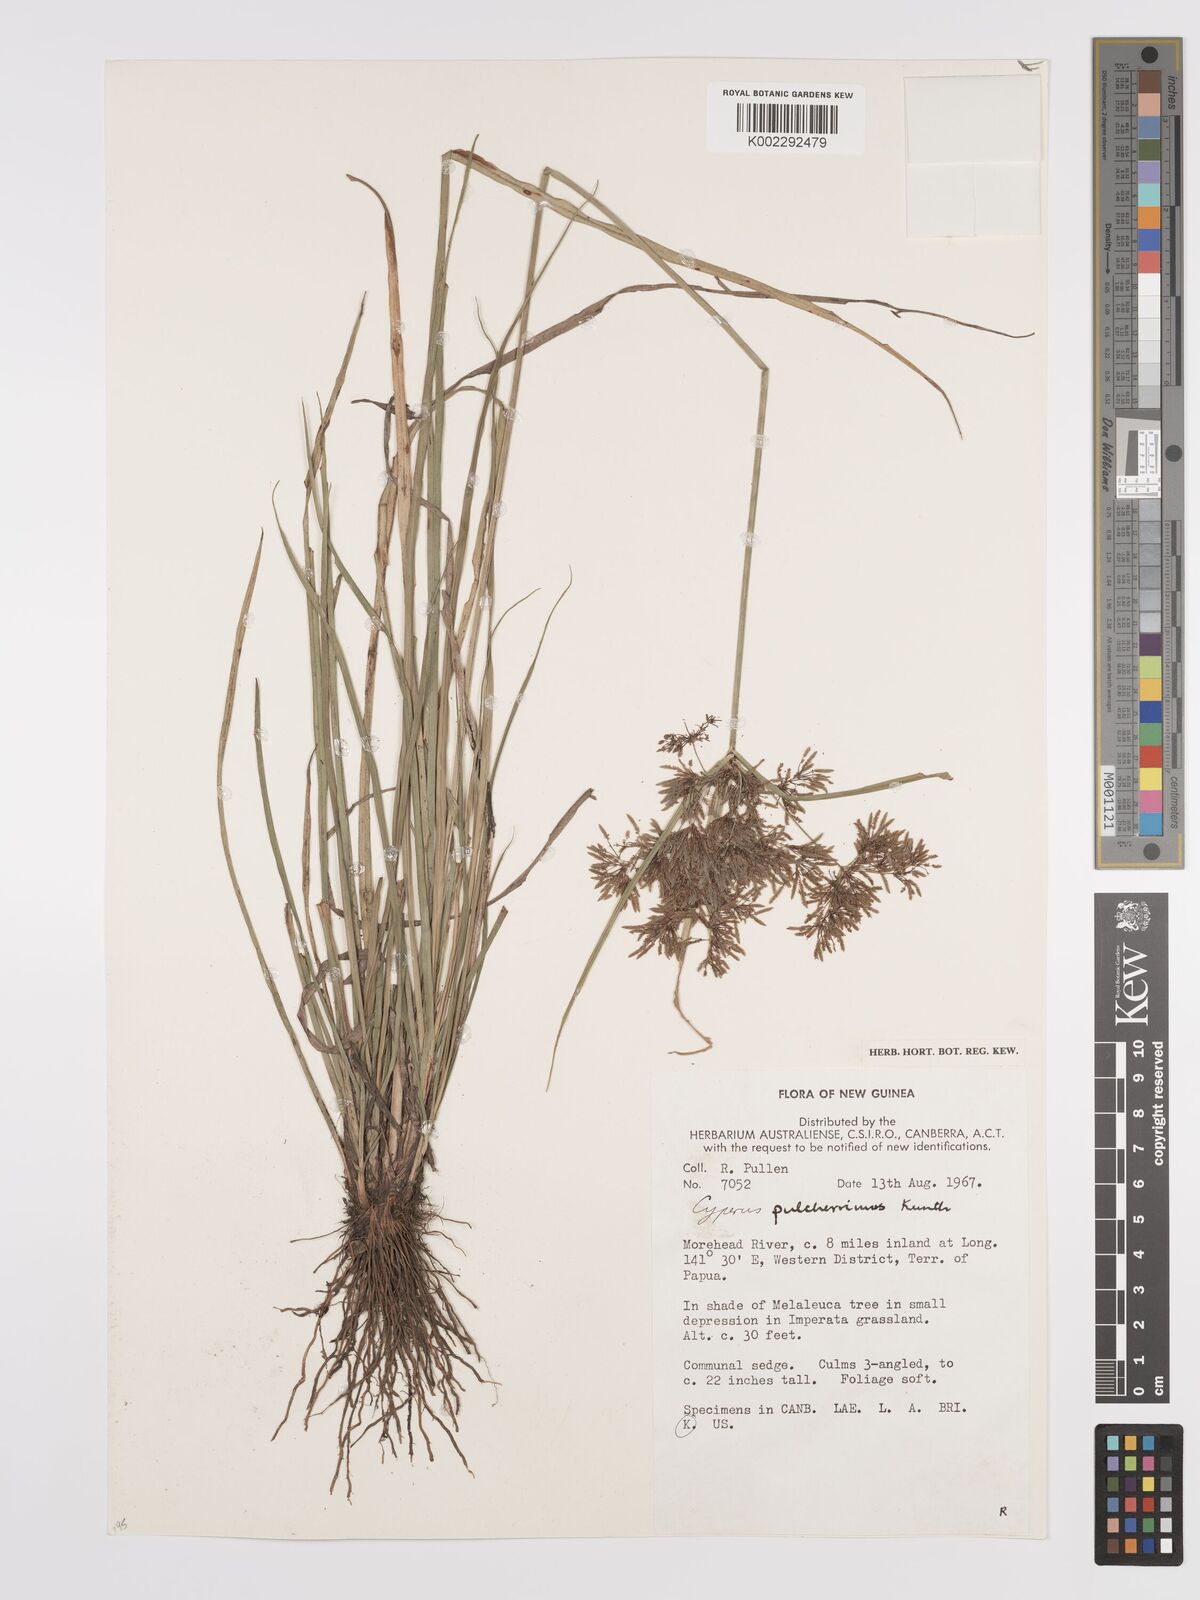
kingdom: Plantae
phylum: Tracheophyta
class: Liliopsida
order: Poales
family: Cyperaceae
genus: Cyperus
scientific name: Cyperus pulcherrimus
